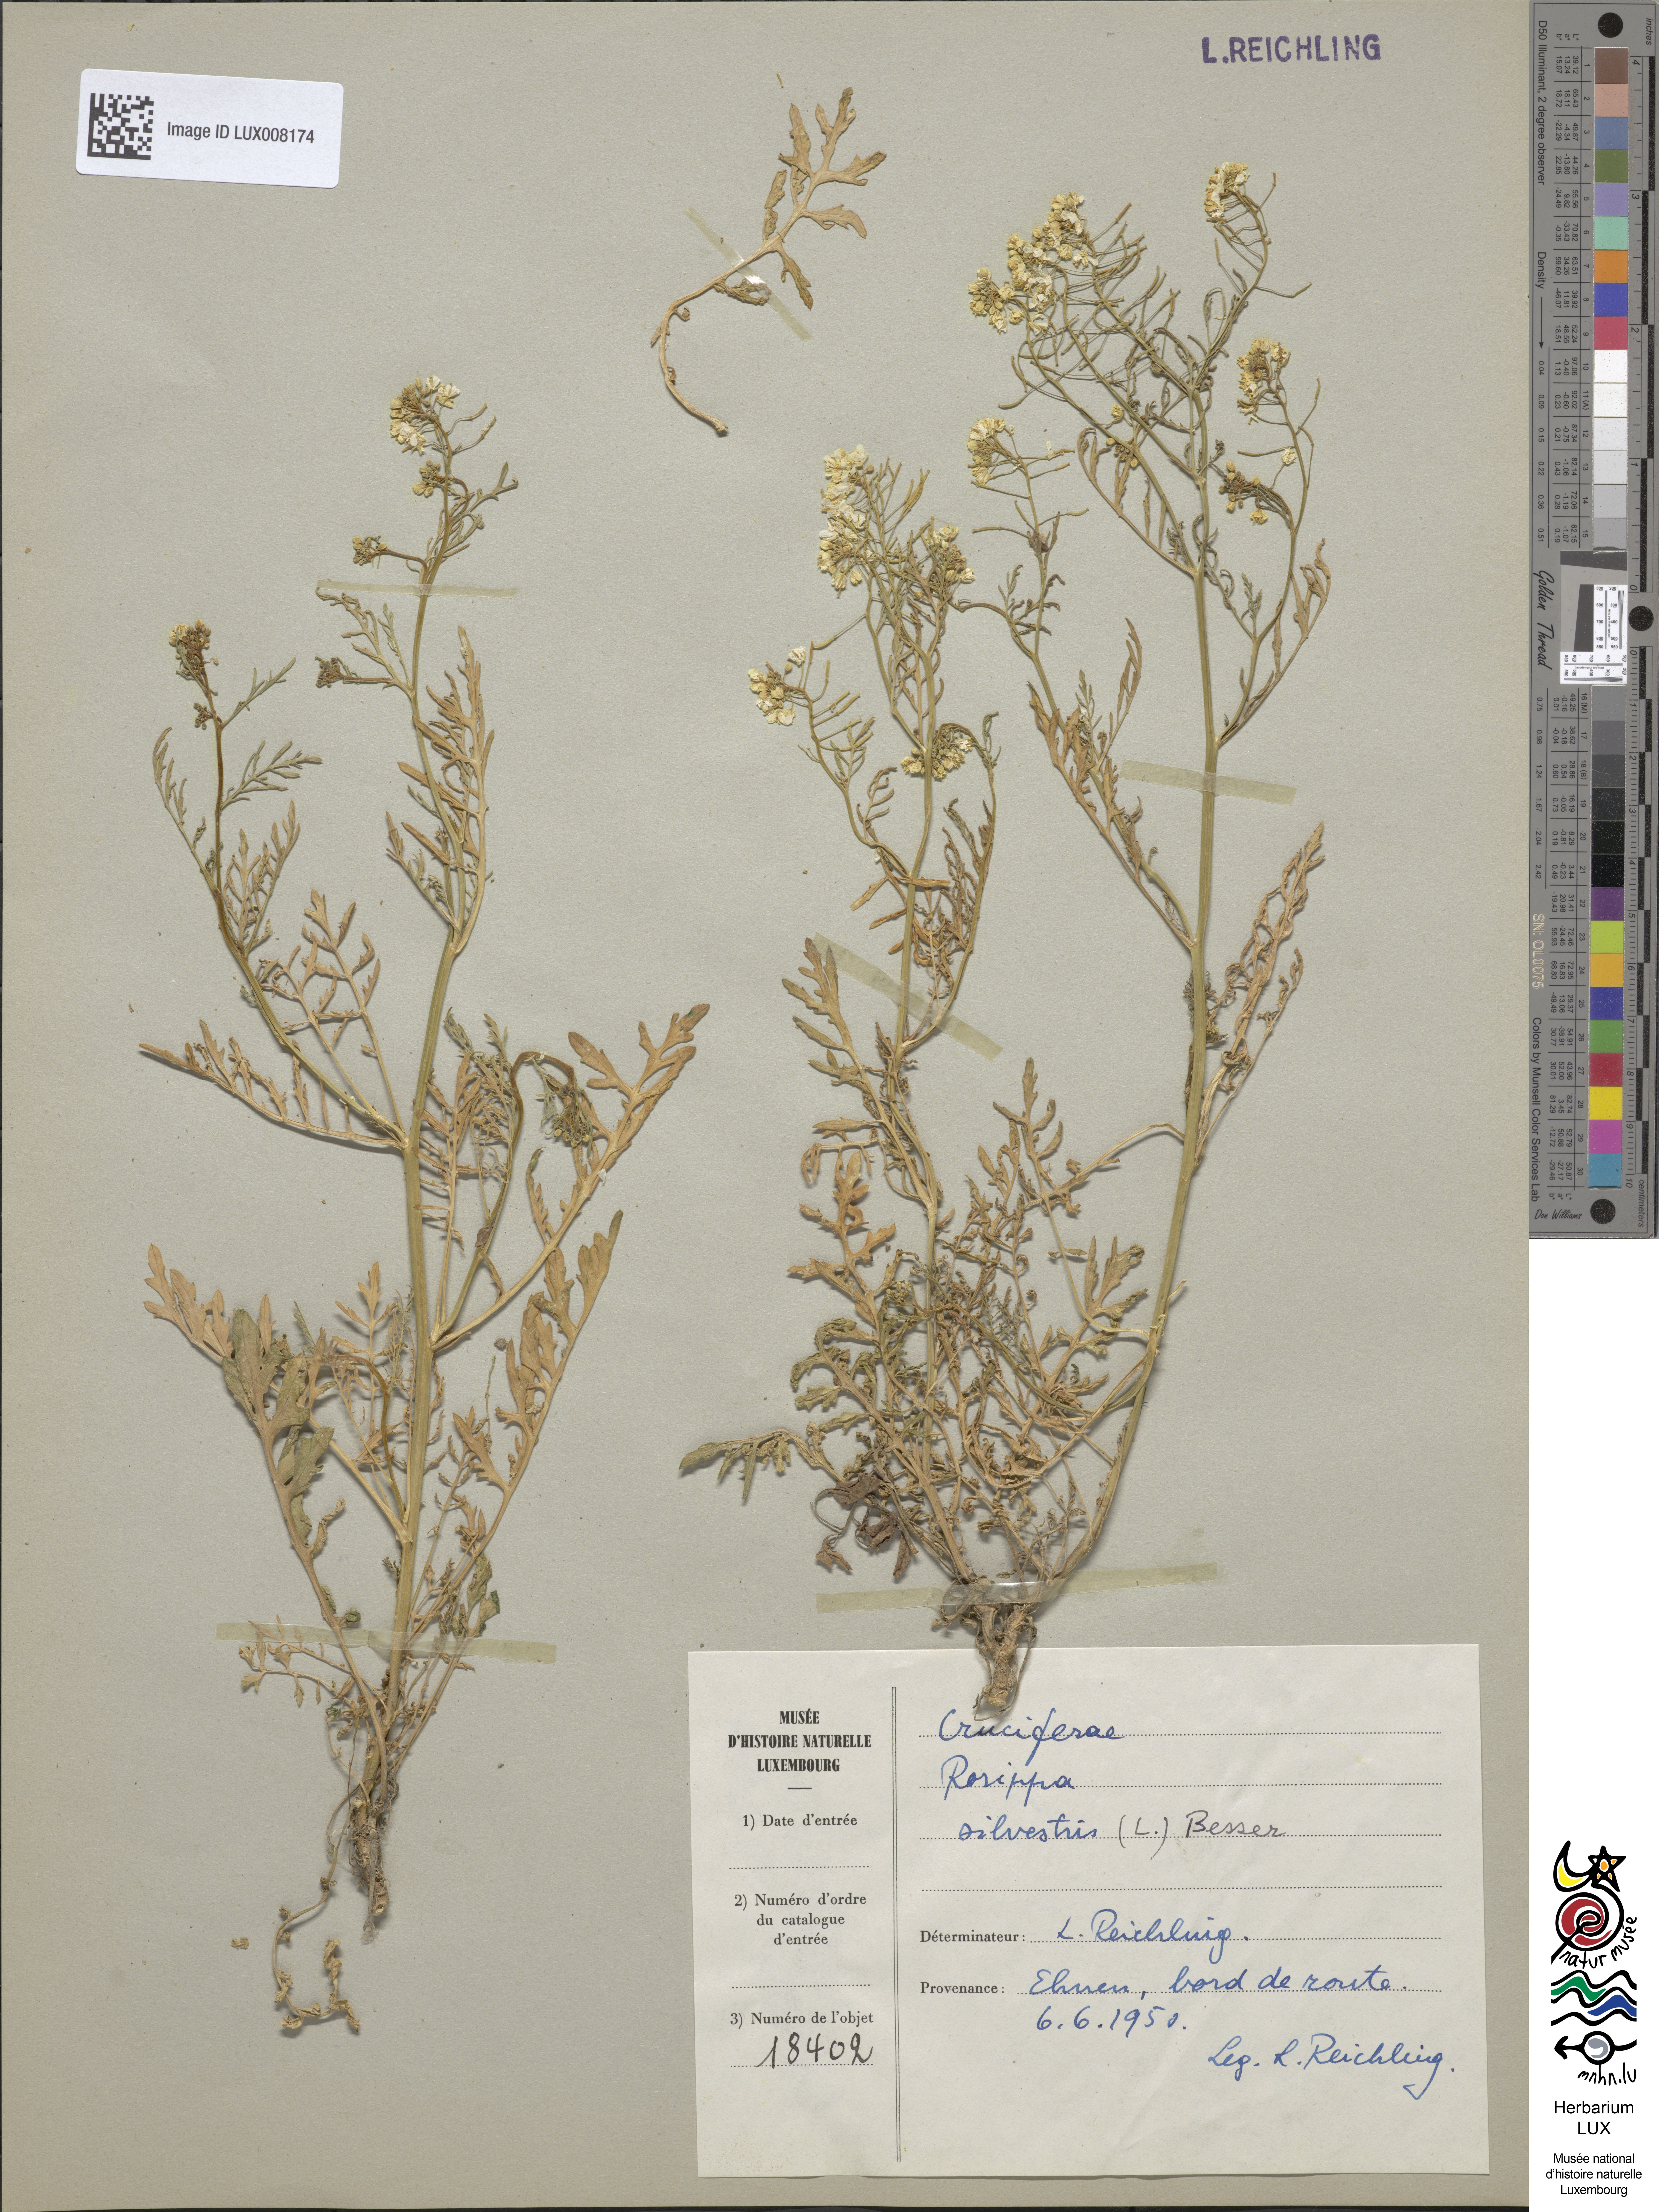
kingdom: Plantae
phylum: Tracheophyta
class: Magnoliopsida
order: Brassicales
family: Brassicaceae
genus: Rorippa
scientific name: Rorippa sylvestris
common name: Creeping yellowcress
